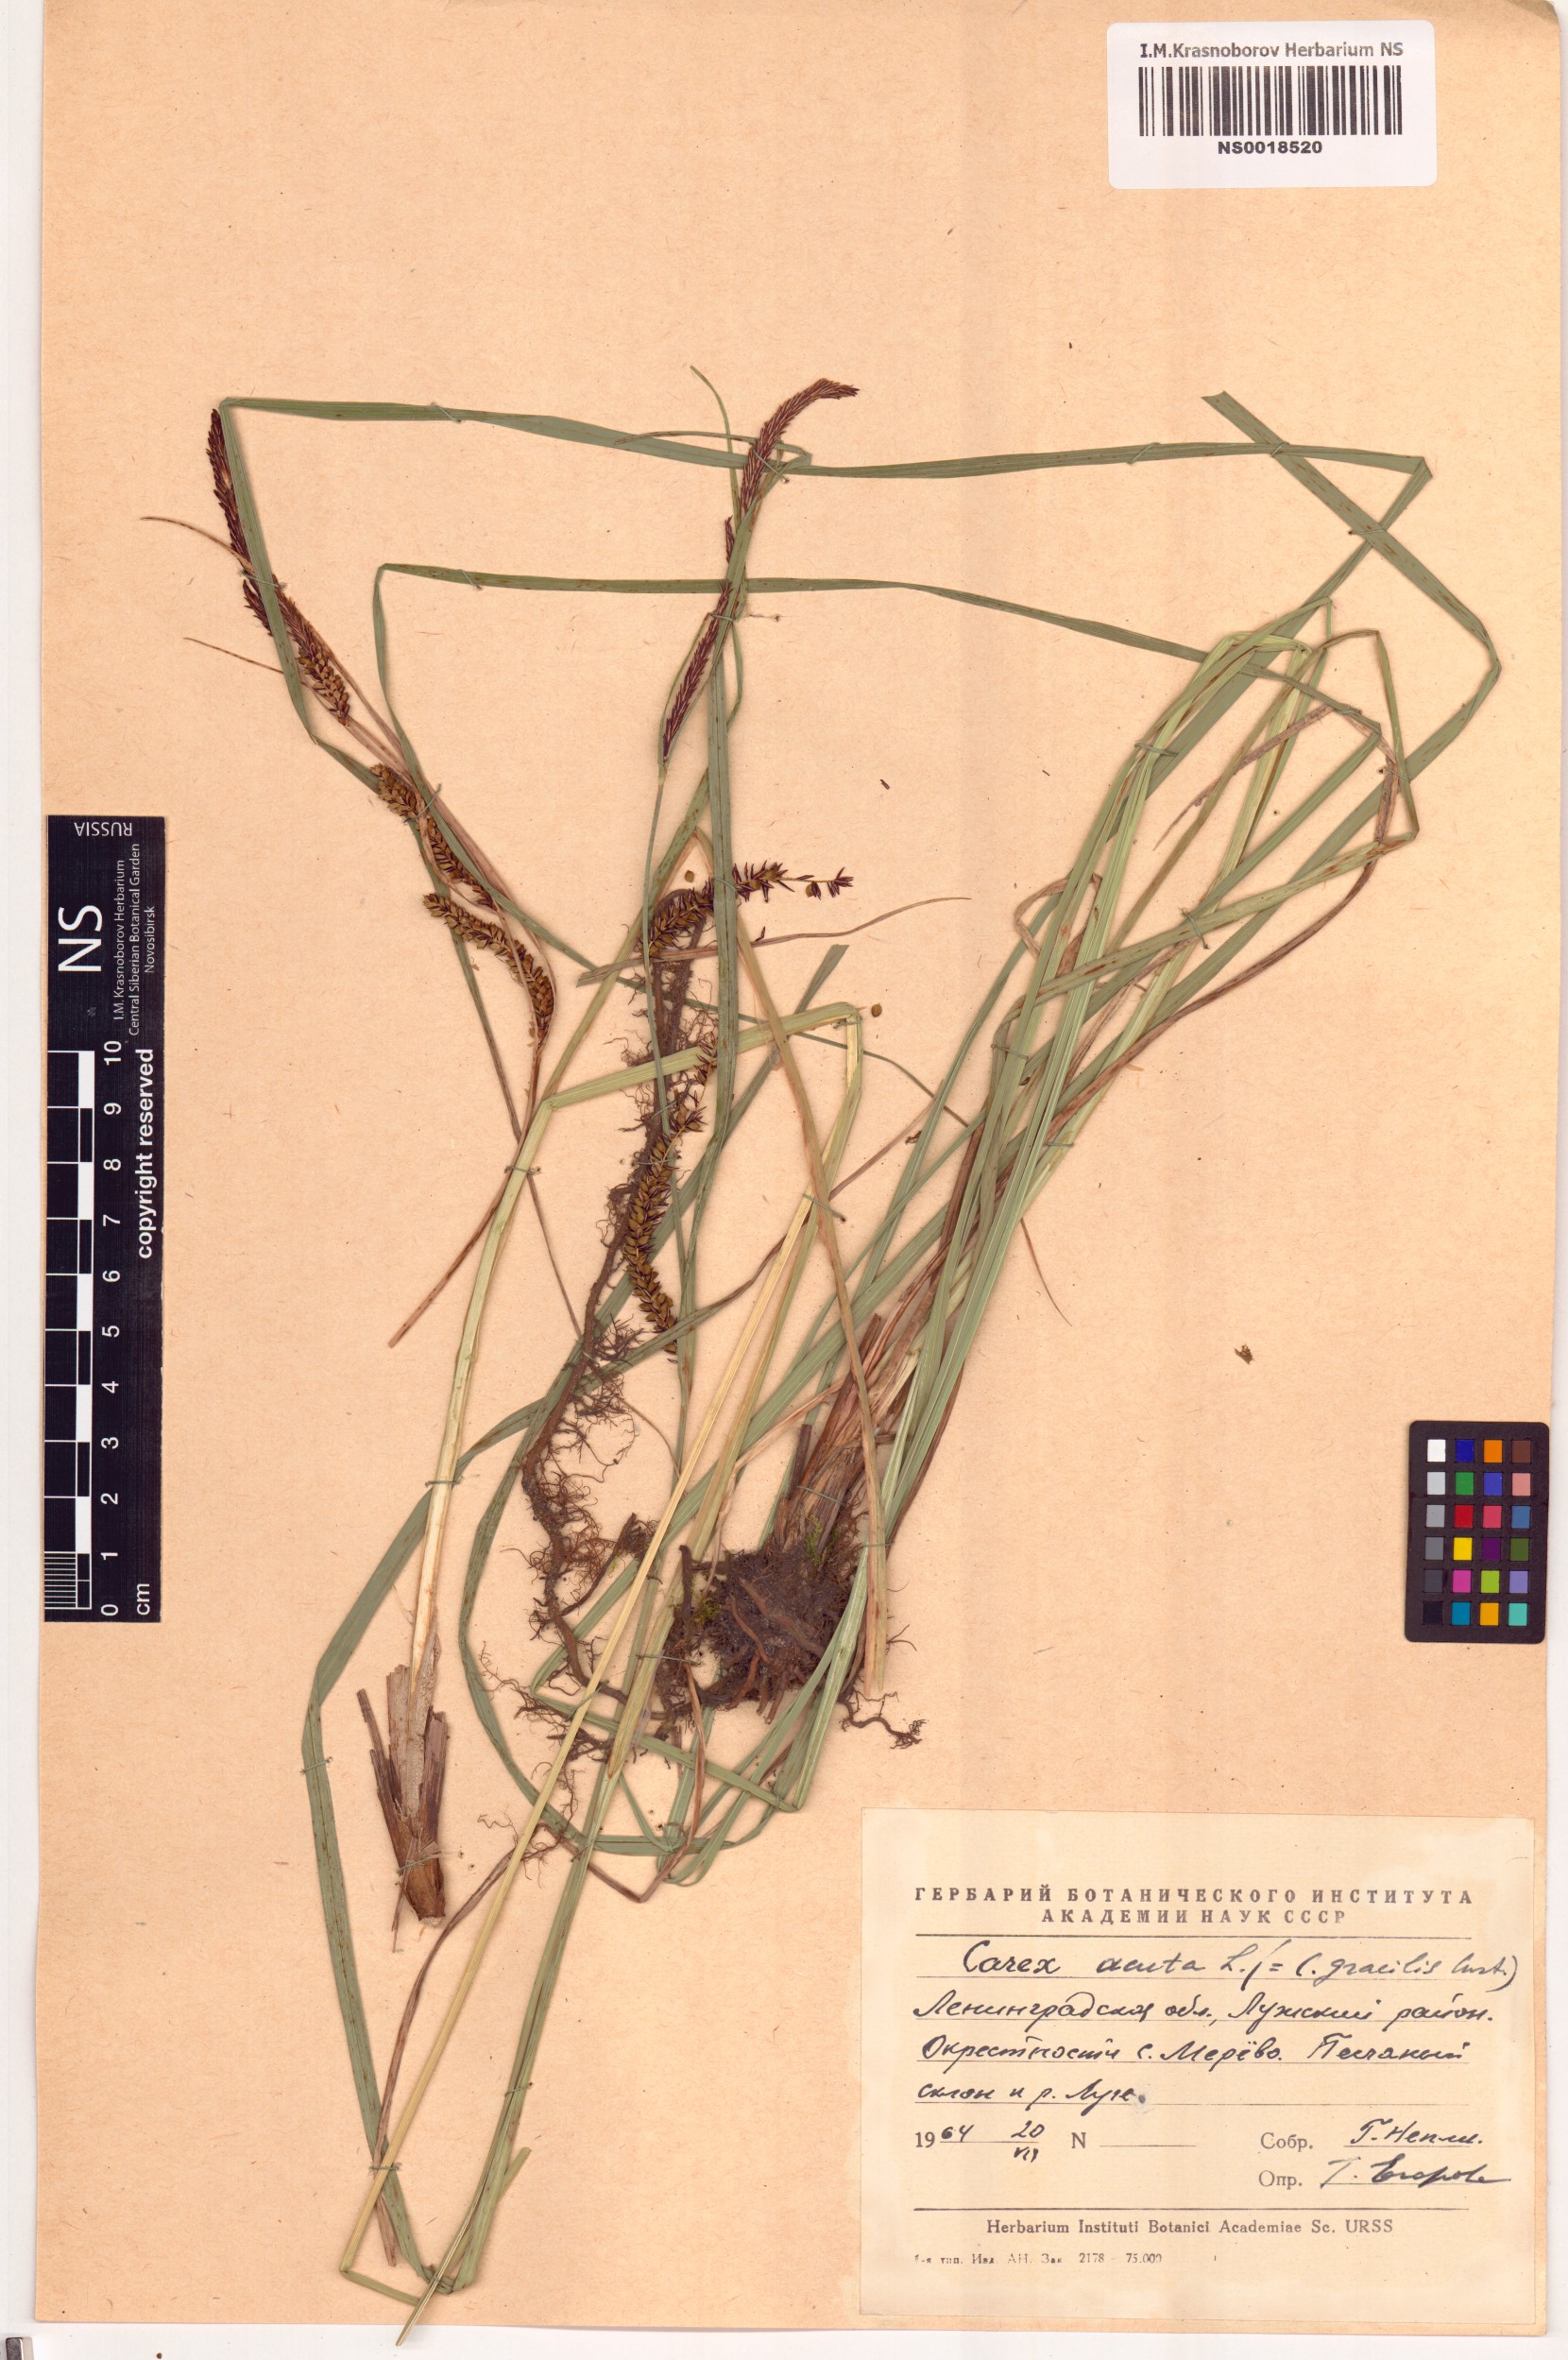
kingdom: Plantae
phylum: Tracheophyta
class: Liliopsida
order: Poales
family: Cyperaceae
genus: Carex
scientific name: Carex acuta
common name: Slender tufted-sedge
